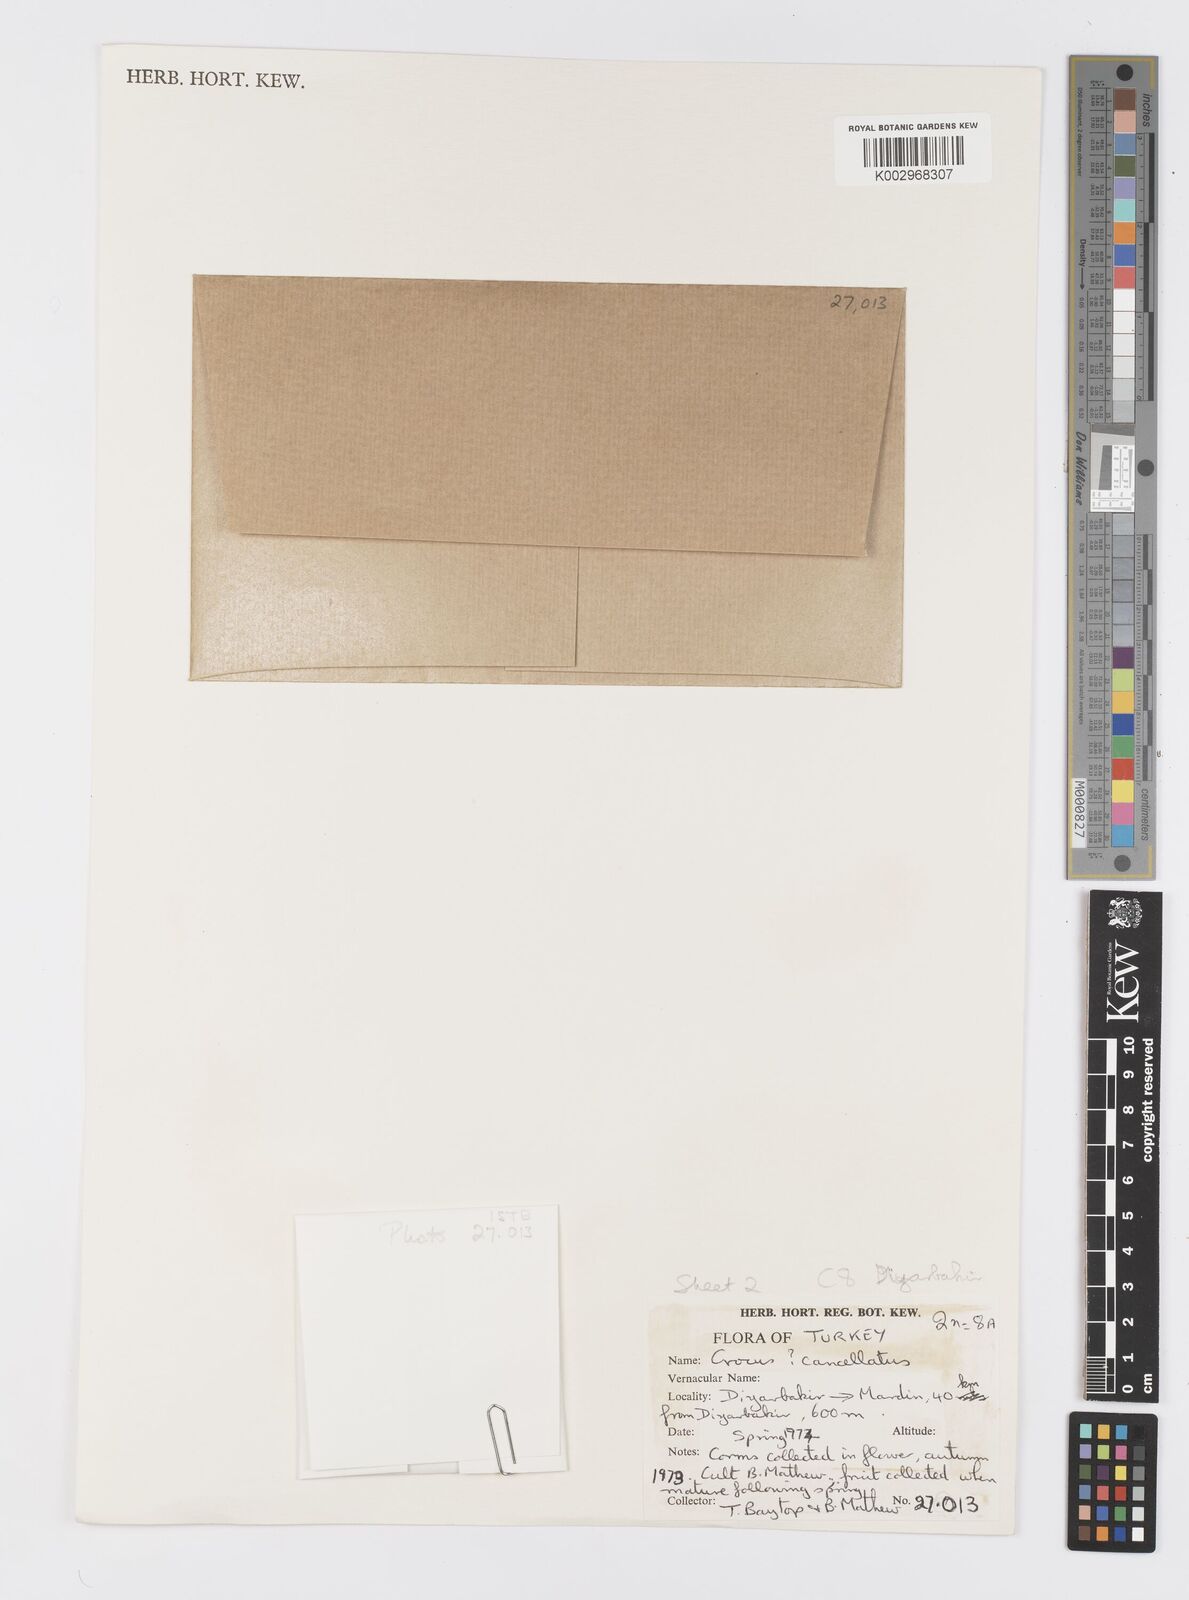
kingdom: Plantae
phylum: Tracheophyta
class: Liliopsida
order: Asparagales
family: Iridaceae
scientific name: Iridaceae
